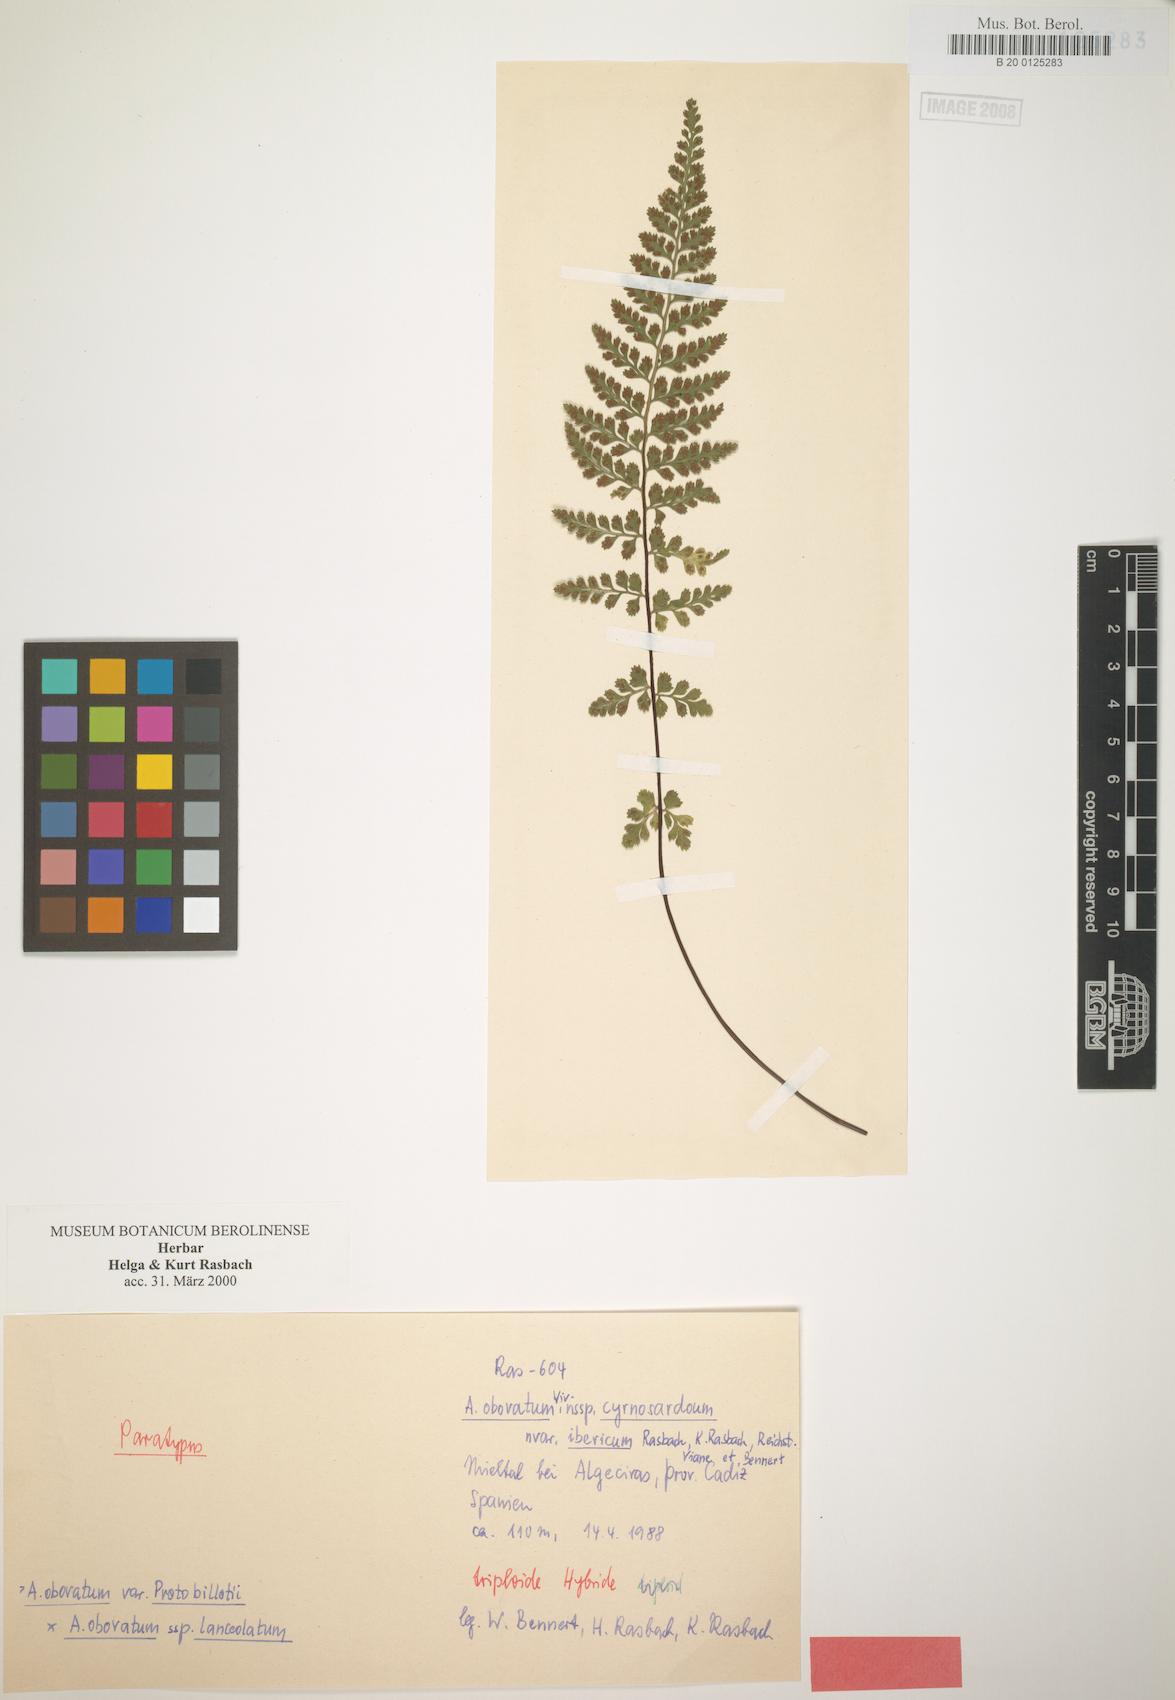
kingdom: Plantae
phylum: Tracheophyta
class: Polypodiopsida
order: Polypodiales
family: Aspleniaceae
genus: Asplenium
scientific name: Asplenium obovatum
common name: Lanceolate spleenwort
